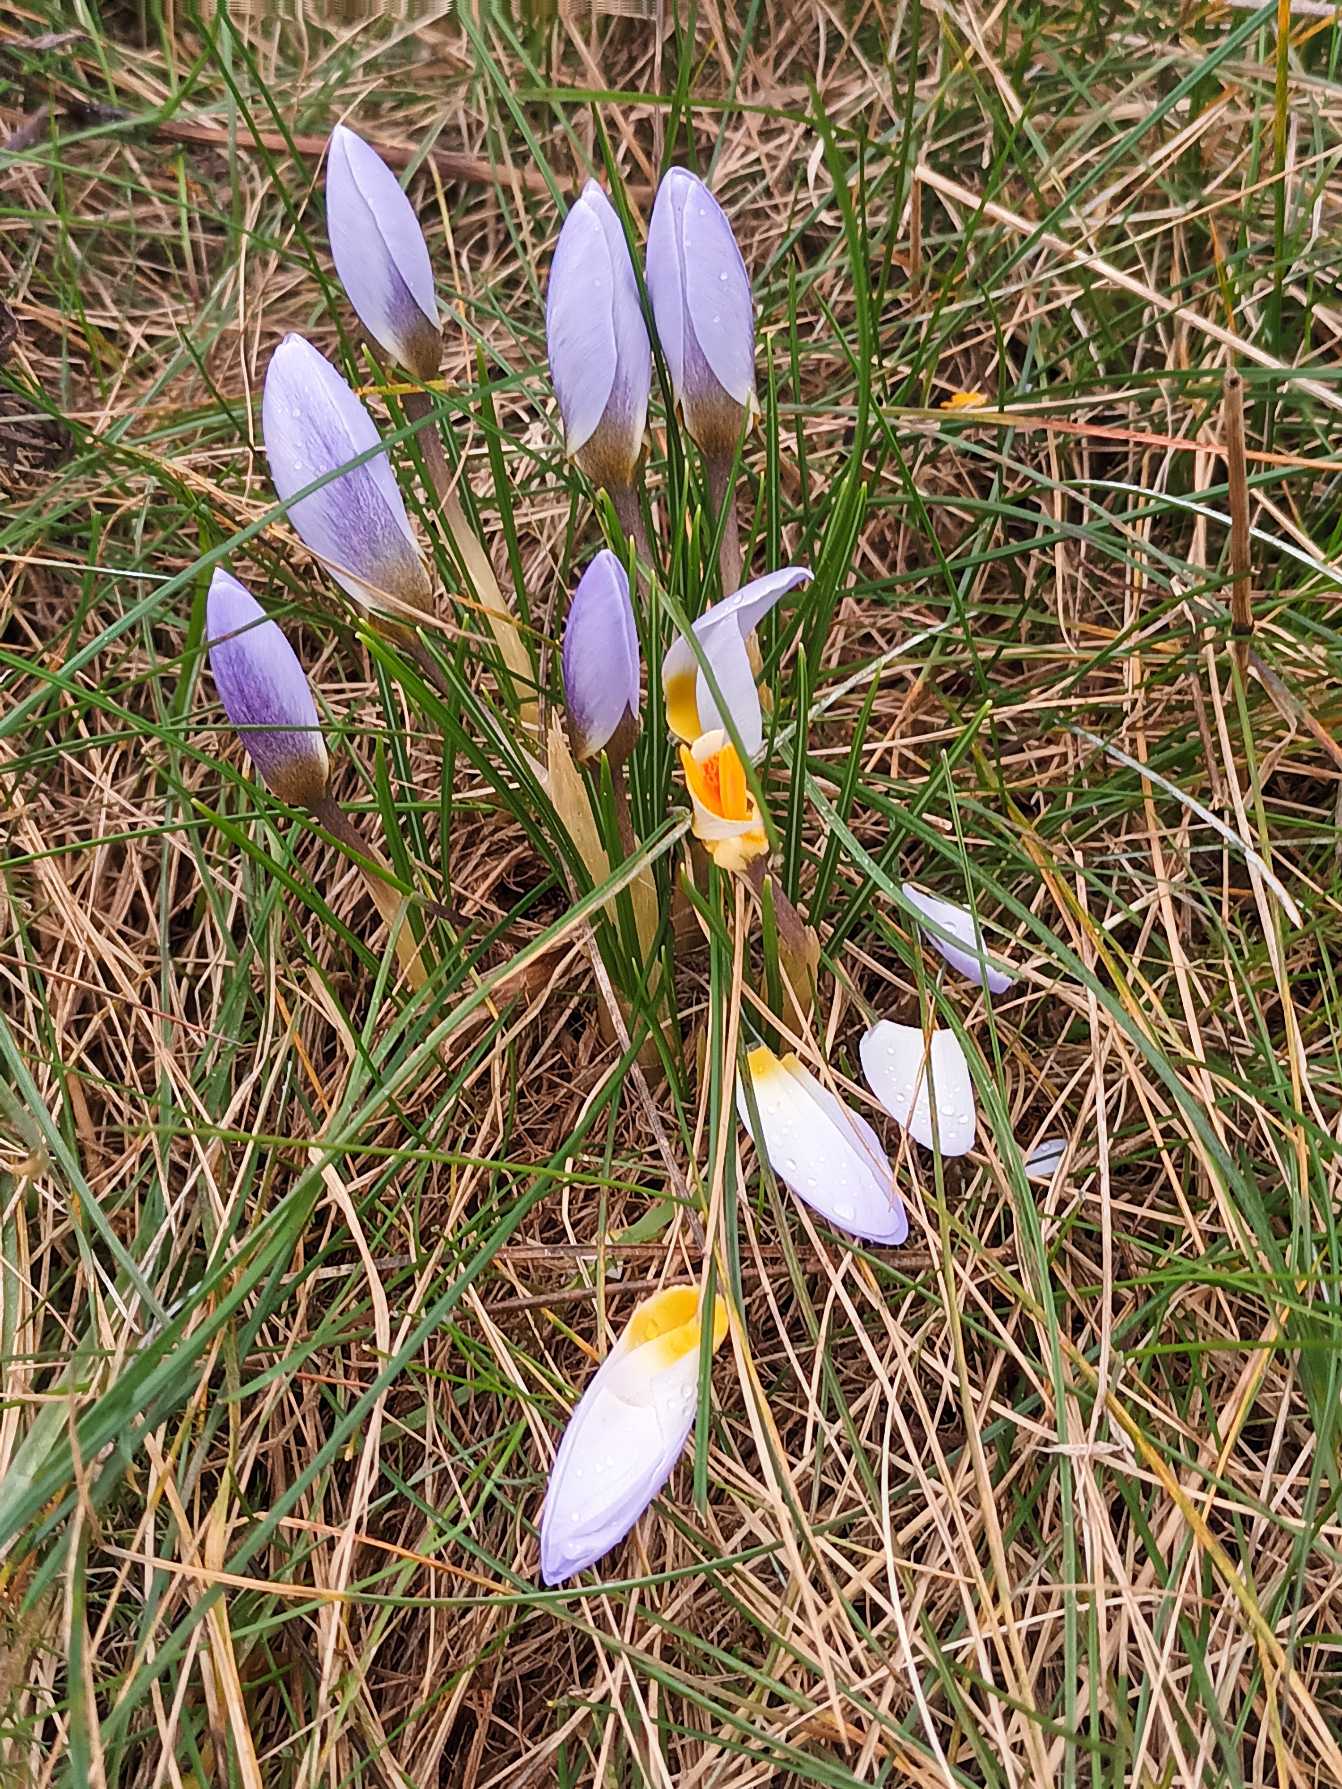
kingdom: Plantae
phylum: Tracheophyta
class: Liliopsida
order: Asparagales
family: Iridaceae
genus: Crocus
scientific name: Crocus sieberi
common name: Græsk krokus
